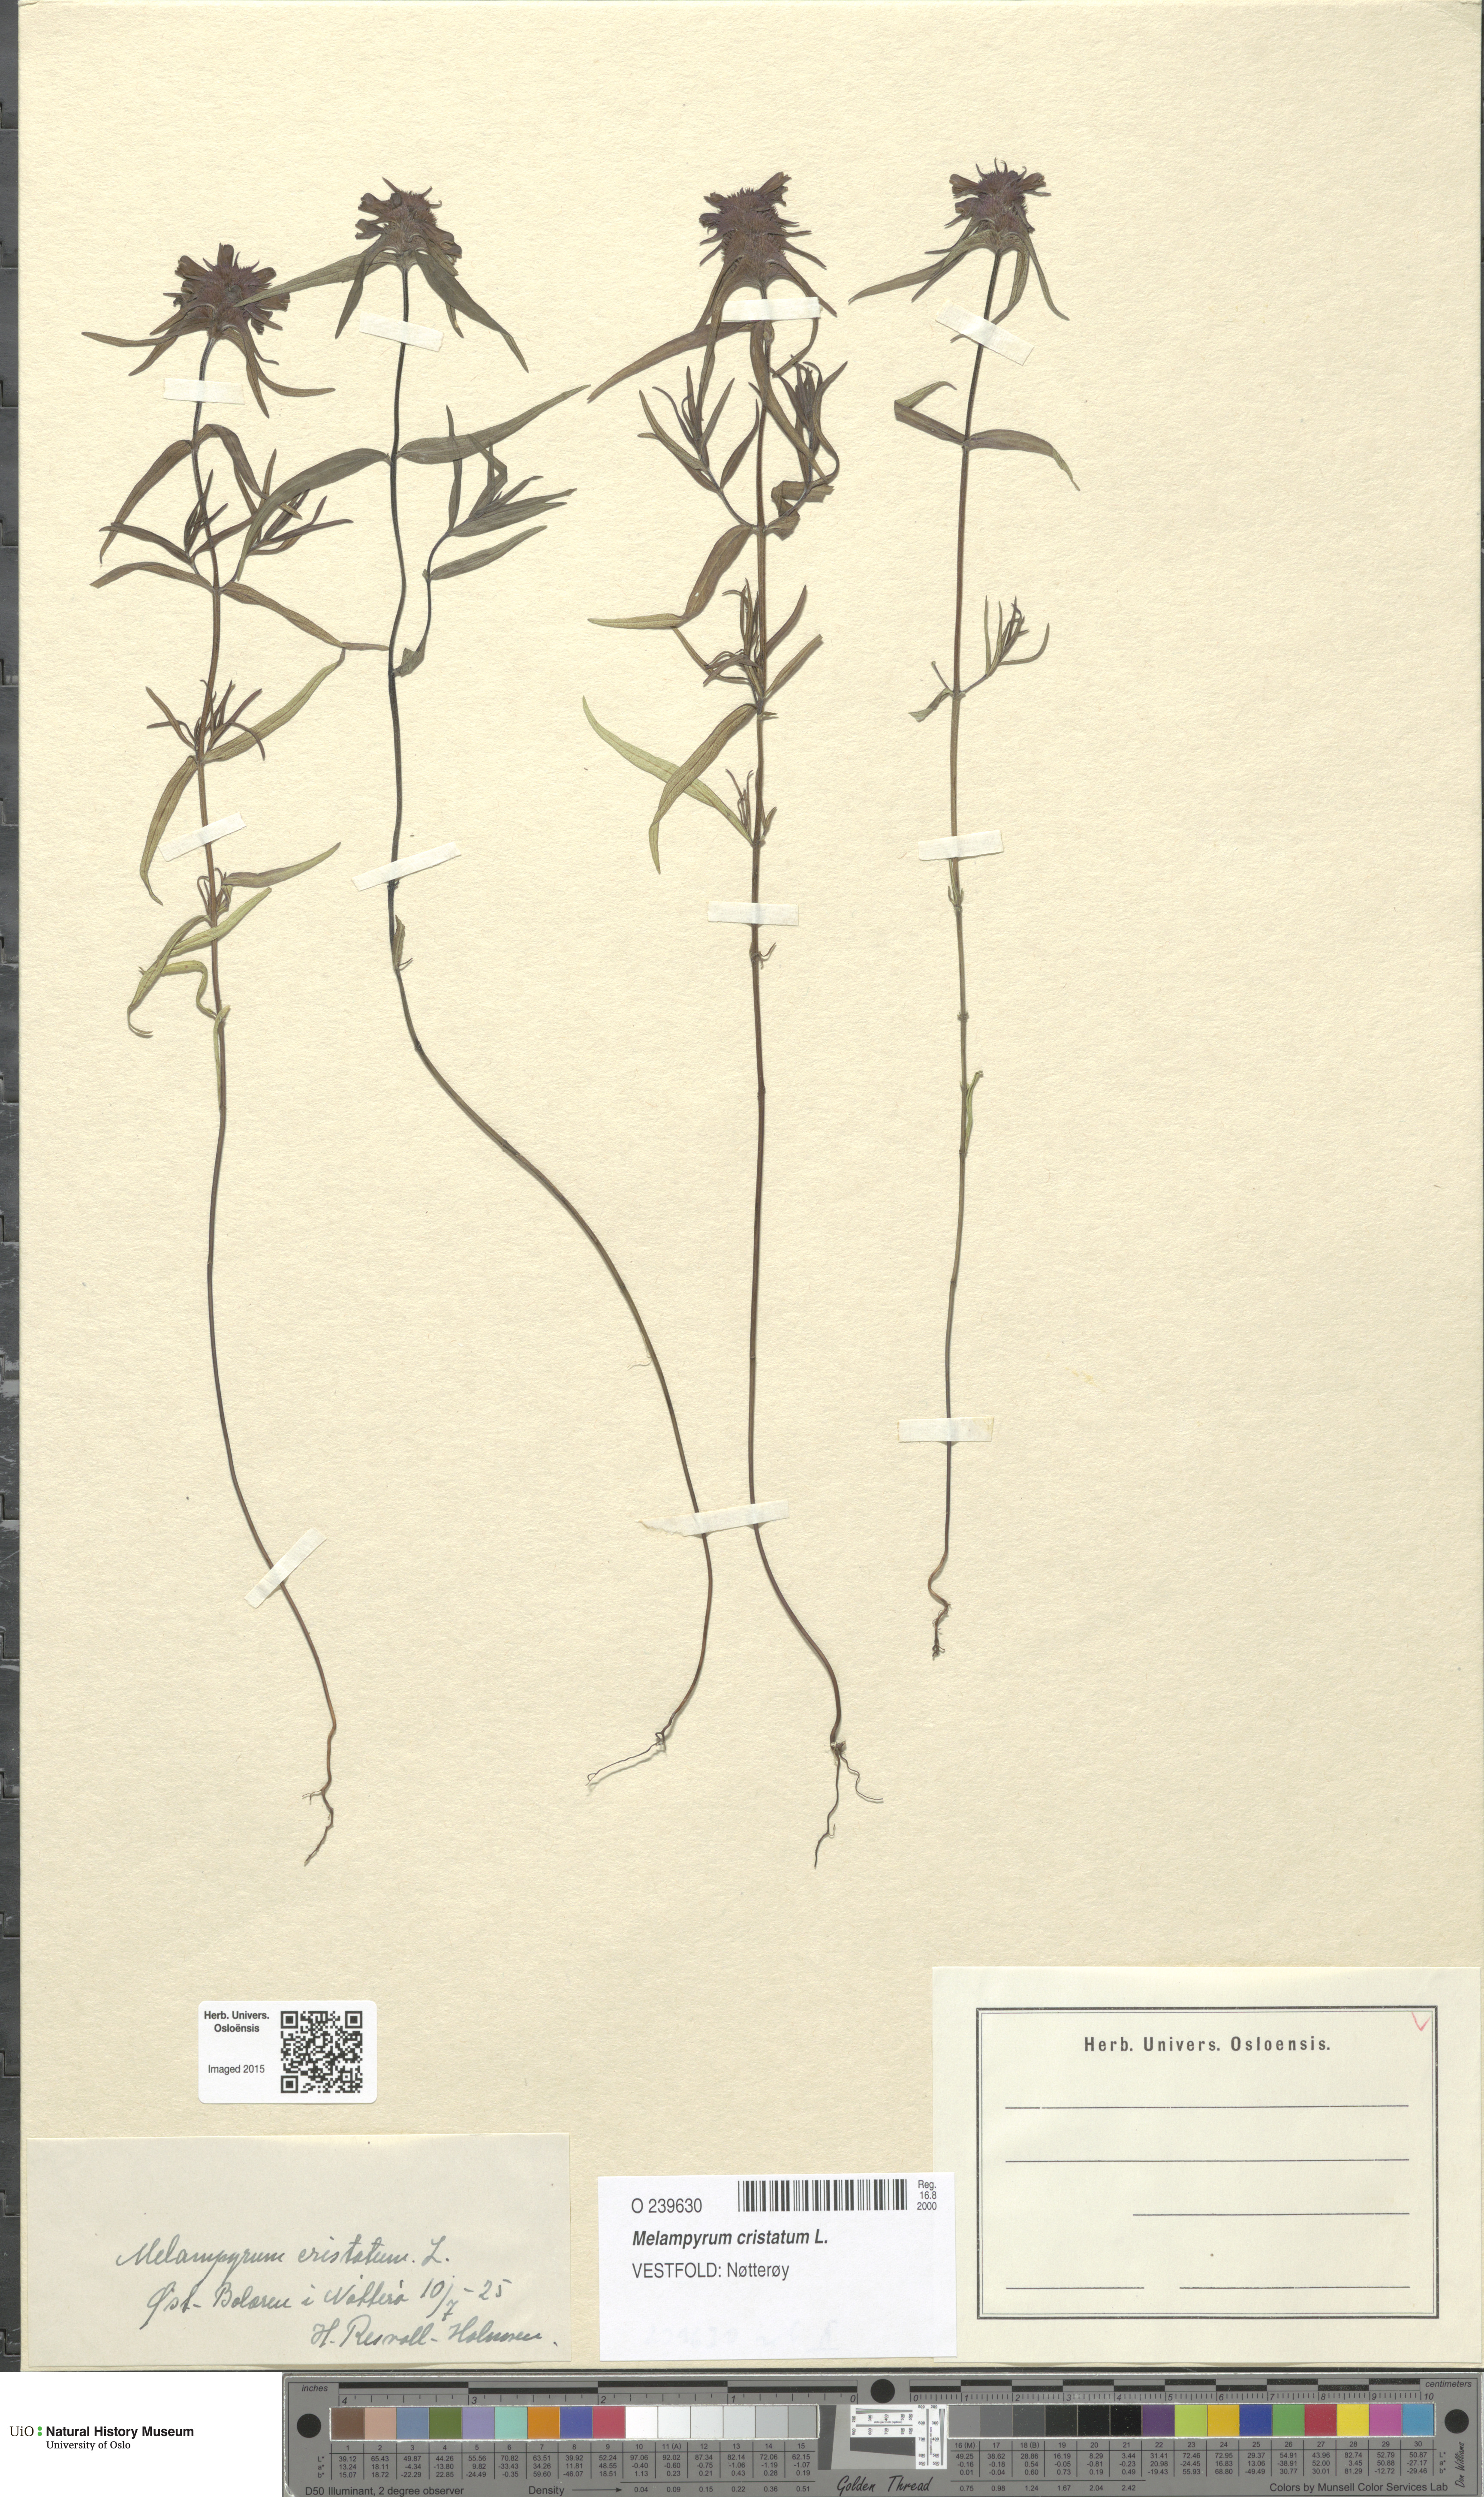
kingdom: Plantae
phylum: Tracheophyta
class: Magnoliopsida
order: Lamiales
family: Orobanchaceae
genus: Melampyrum
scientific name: Melampyrum cristatum
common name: Crested cow-wheat
